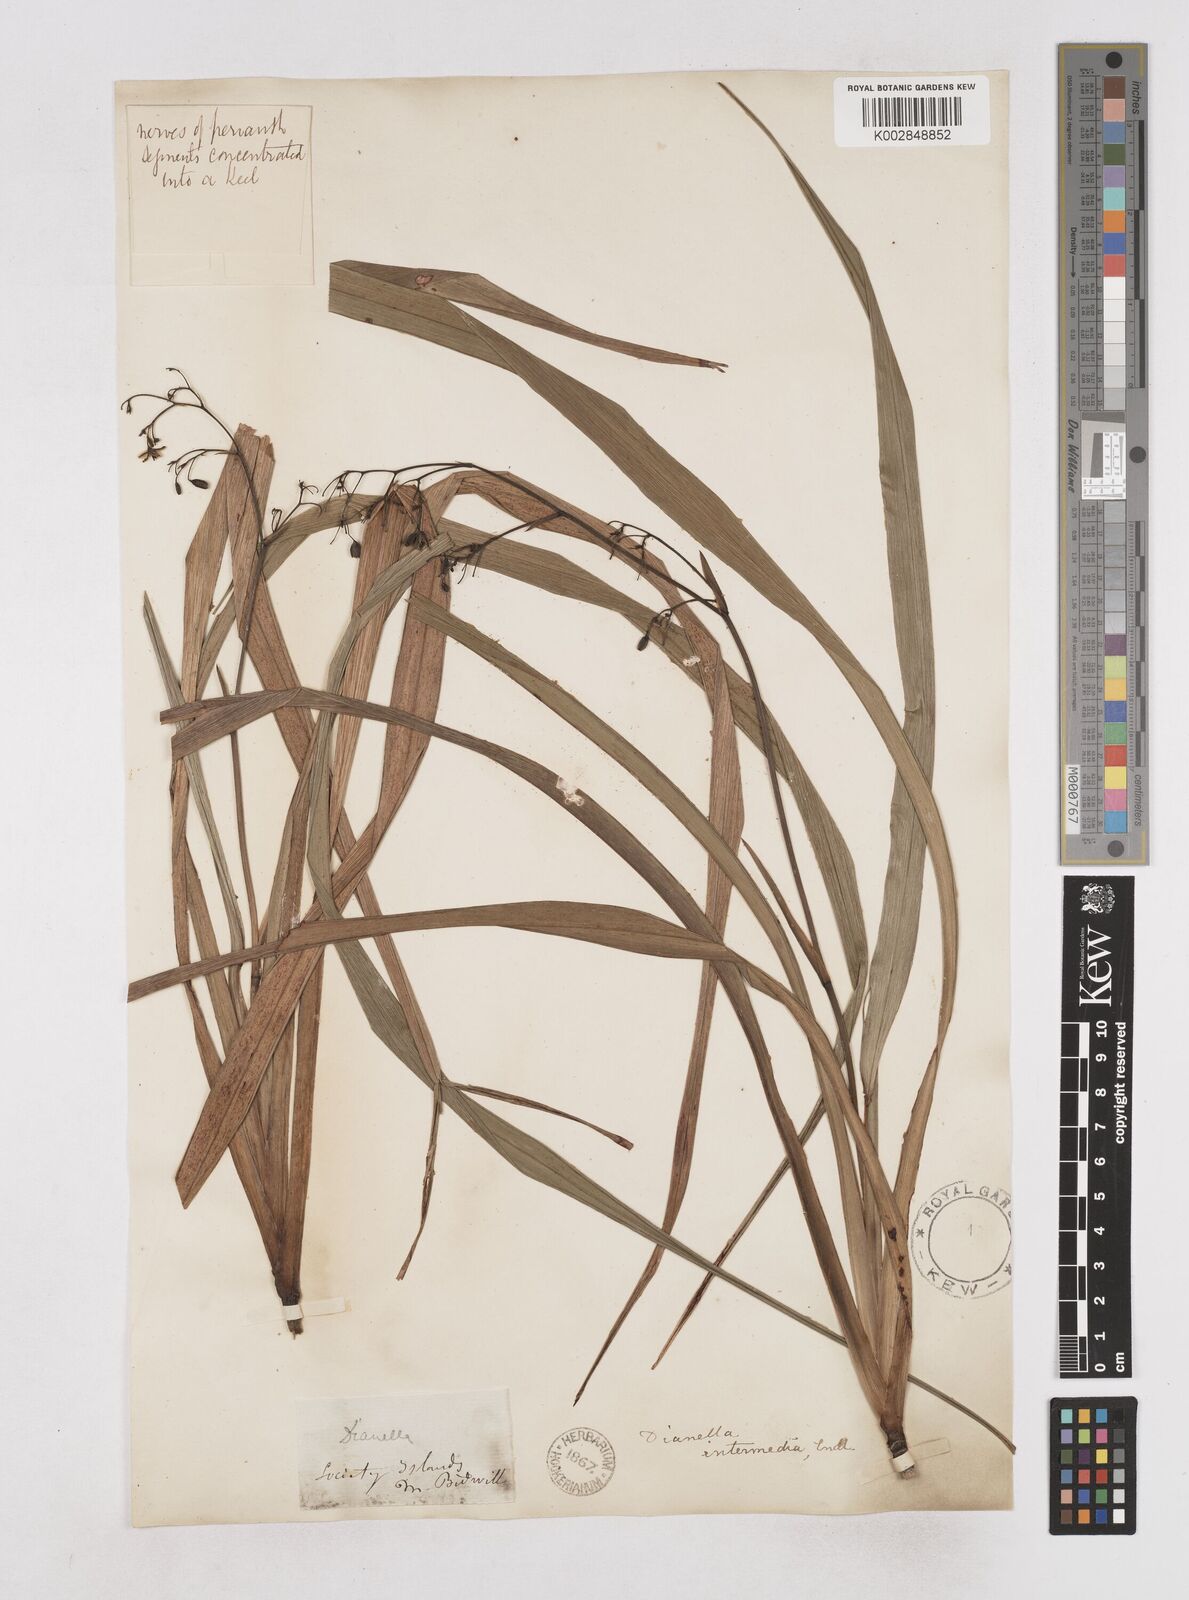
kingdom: Plantae
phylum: Tracheophyta
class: Liliopsida
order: Asparagales
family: Asphodelaceae
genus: Dianella
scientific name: Dianella intermedia
